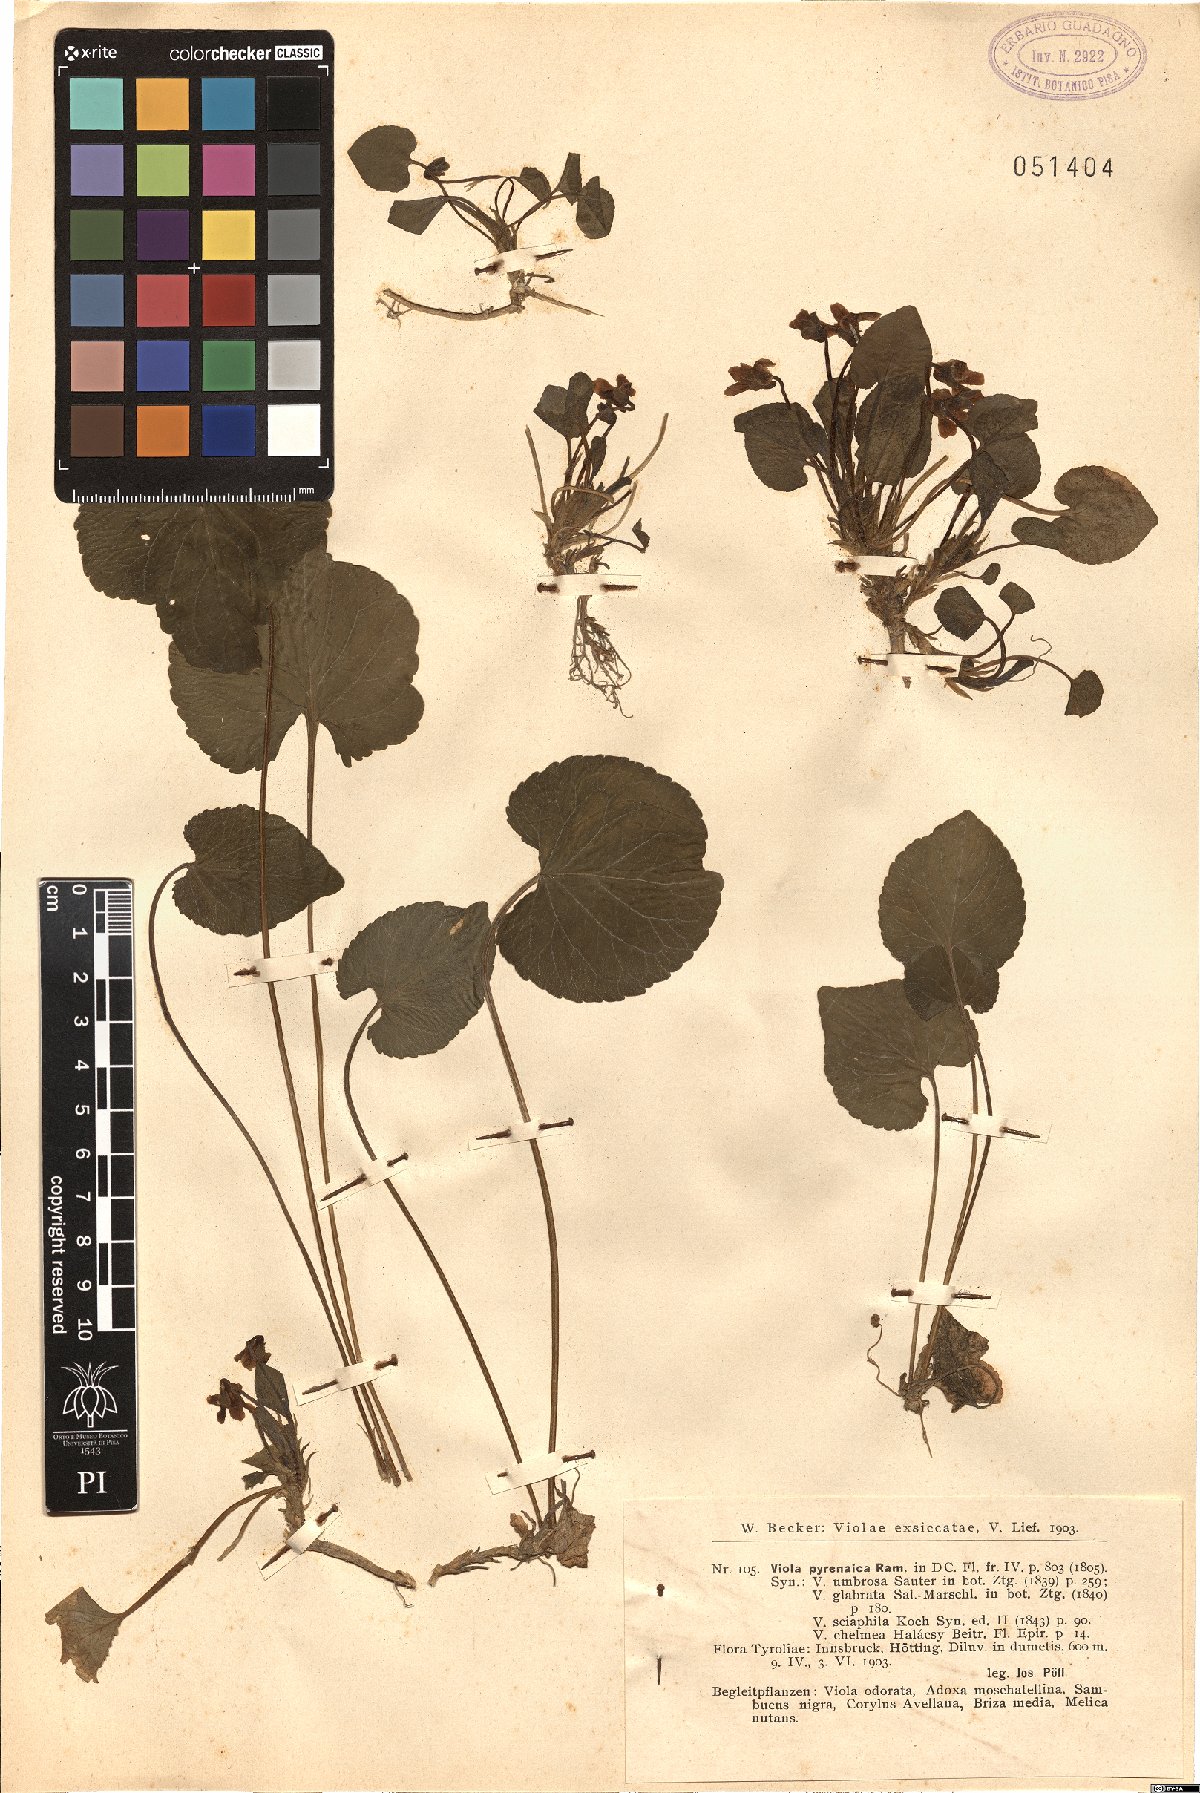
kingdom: Plantae
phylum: Tracheophyta
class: Magnoliopsida
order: Malpighiales
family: Violaceae
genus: Viola
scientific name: Viola pyrenaica
